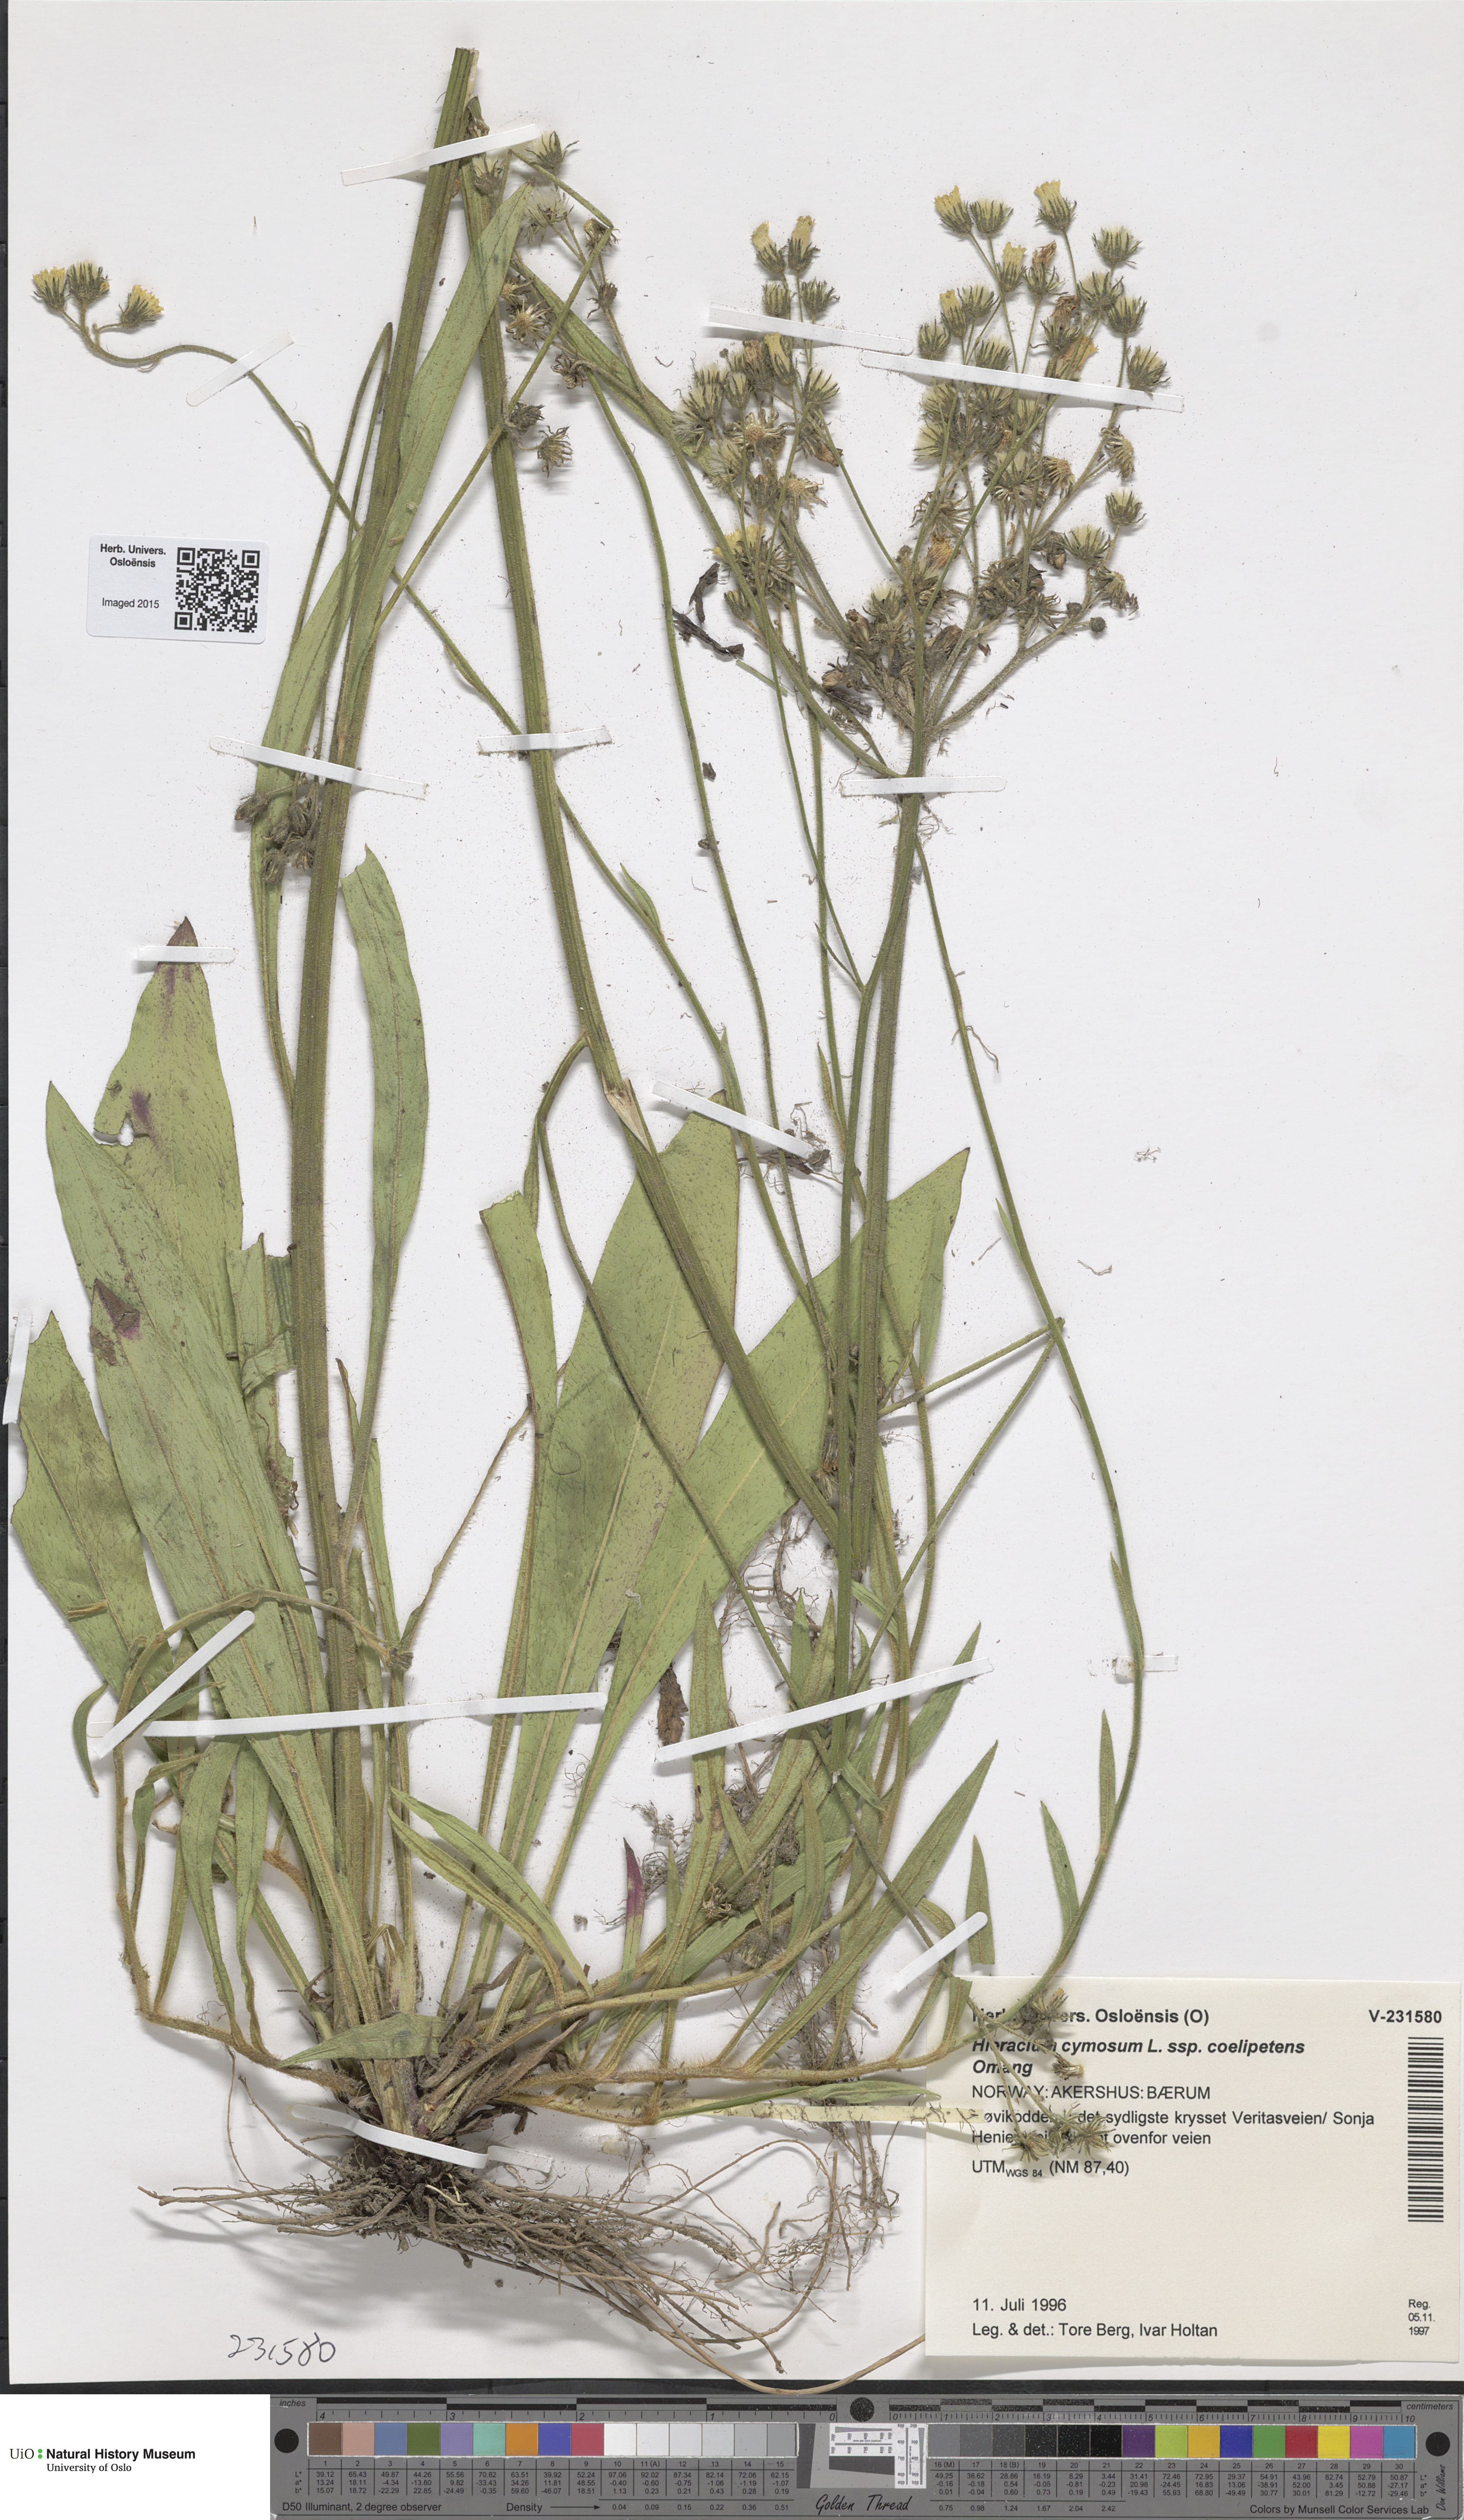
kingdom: Plantae
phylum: Tracheophyta
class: Magnoliopsida
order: Asterales
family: Asteraceae
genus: Pilosella
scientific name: Pilosella cymosa
